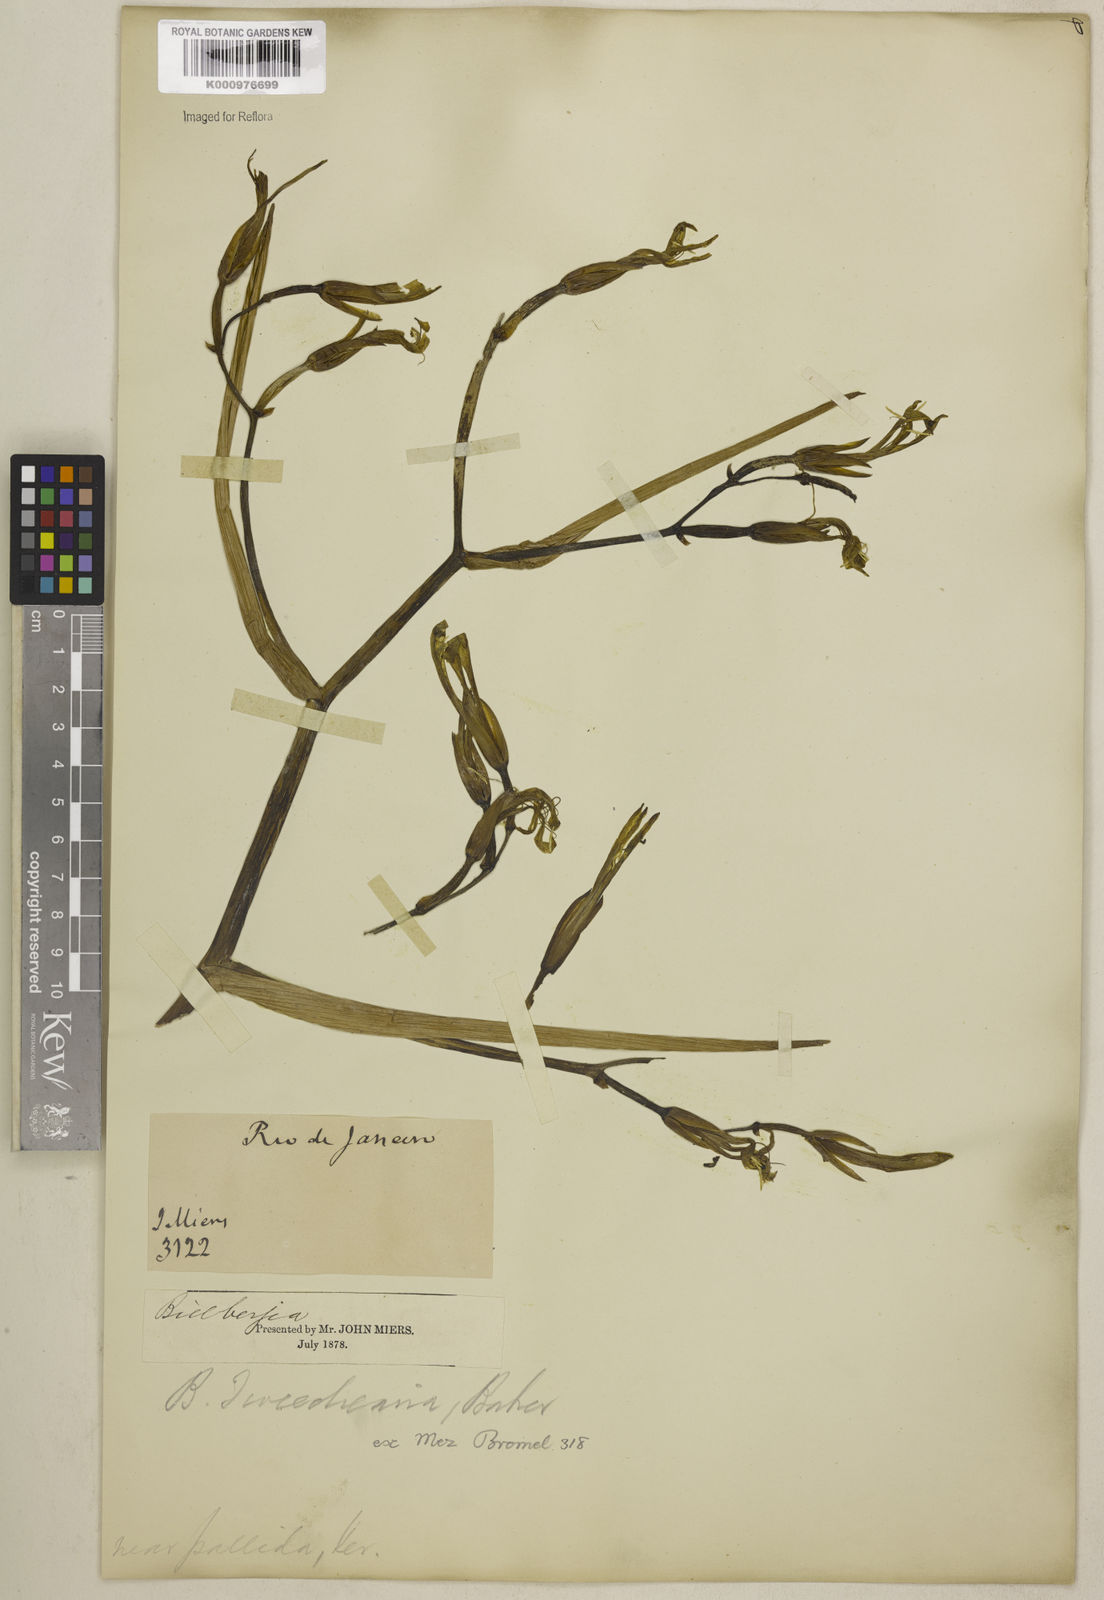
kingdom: Plantae
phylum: Tracheophyta
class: Liliopsida
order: Poales
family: Bromeliaceae
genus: Billbergia
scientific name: Billbergia tweedieana
